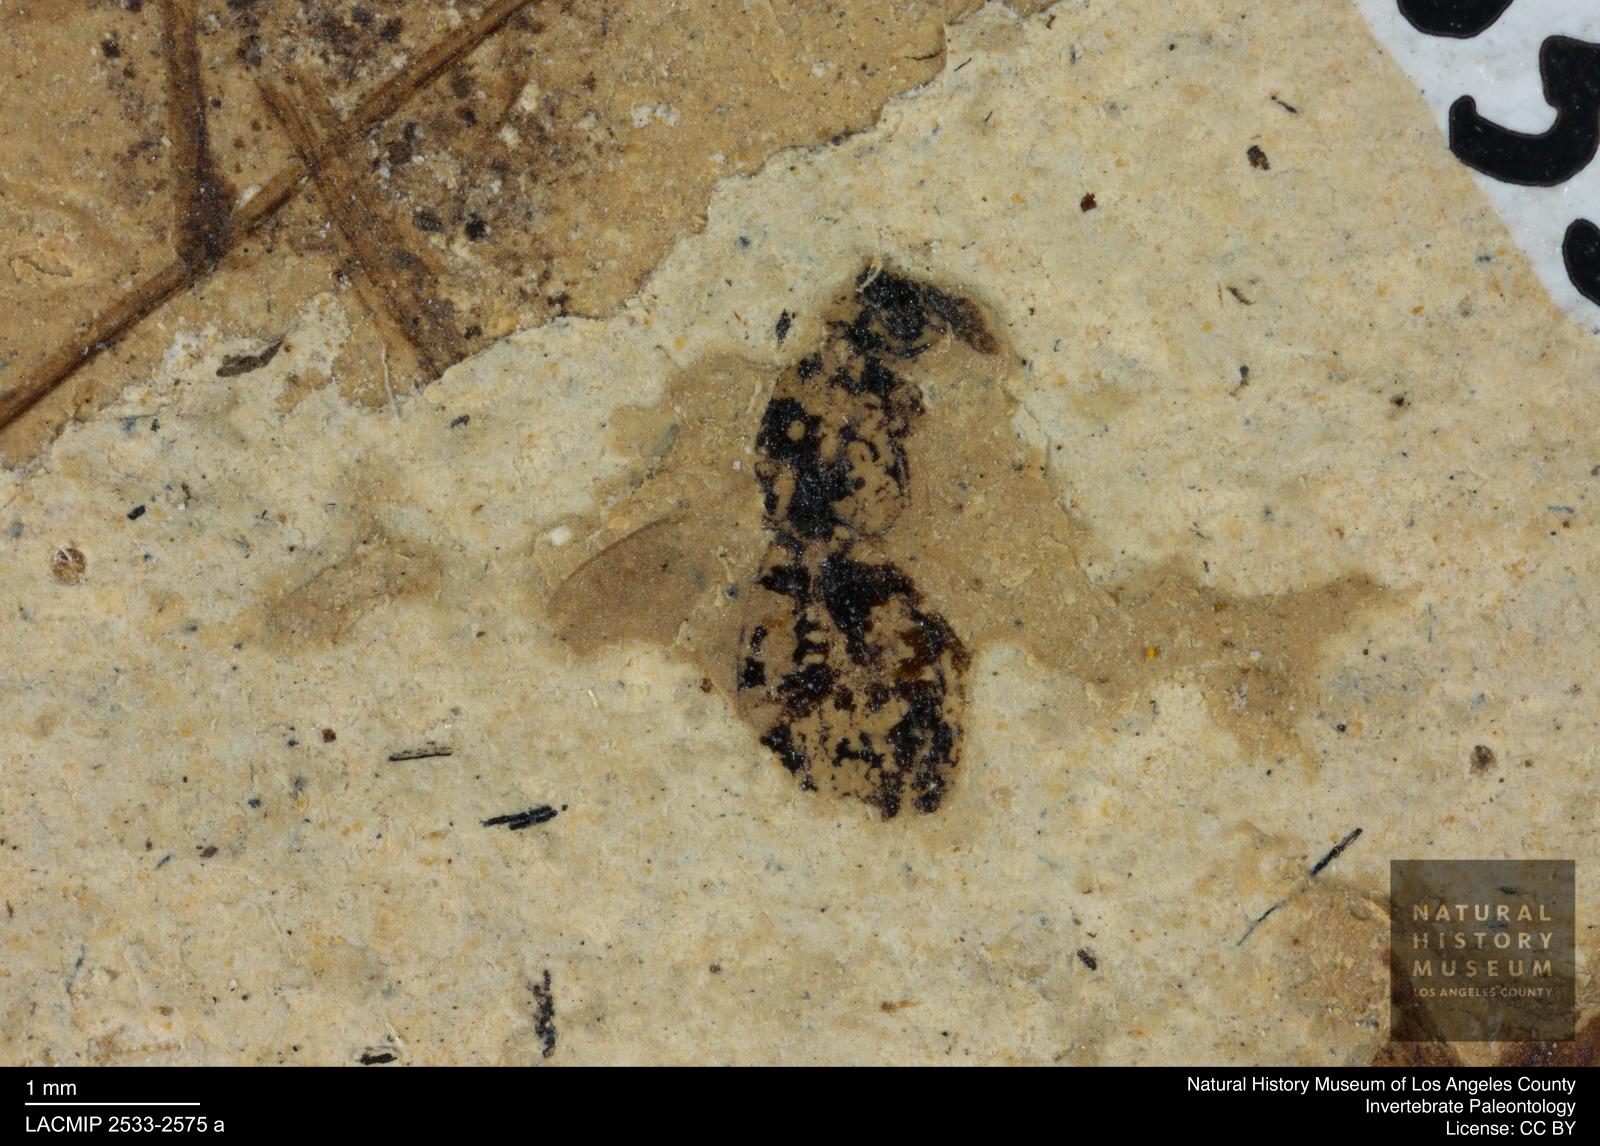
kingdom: Animalia
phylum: Arthropoda
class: Insecta
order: Hymenoptera
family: Formicidae
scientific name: Formicidae
